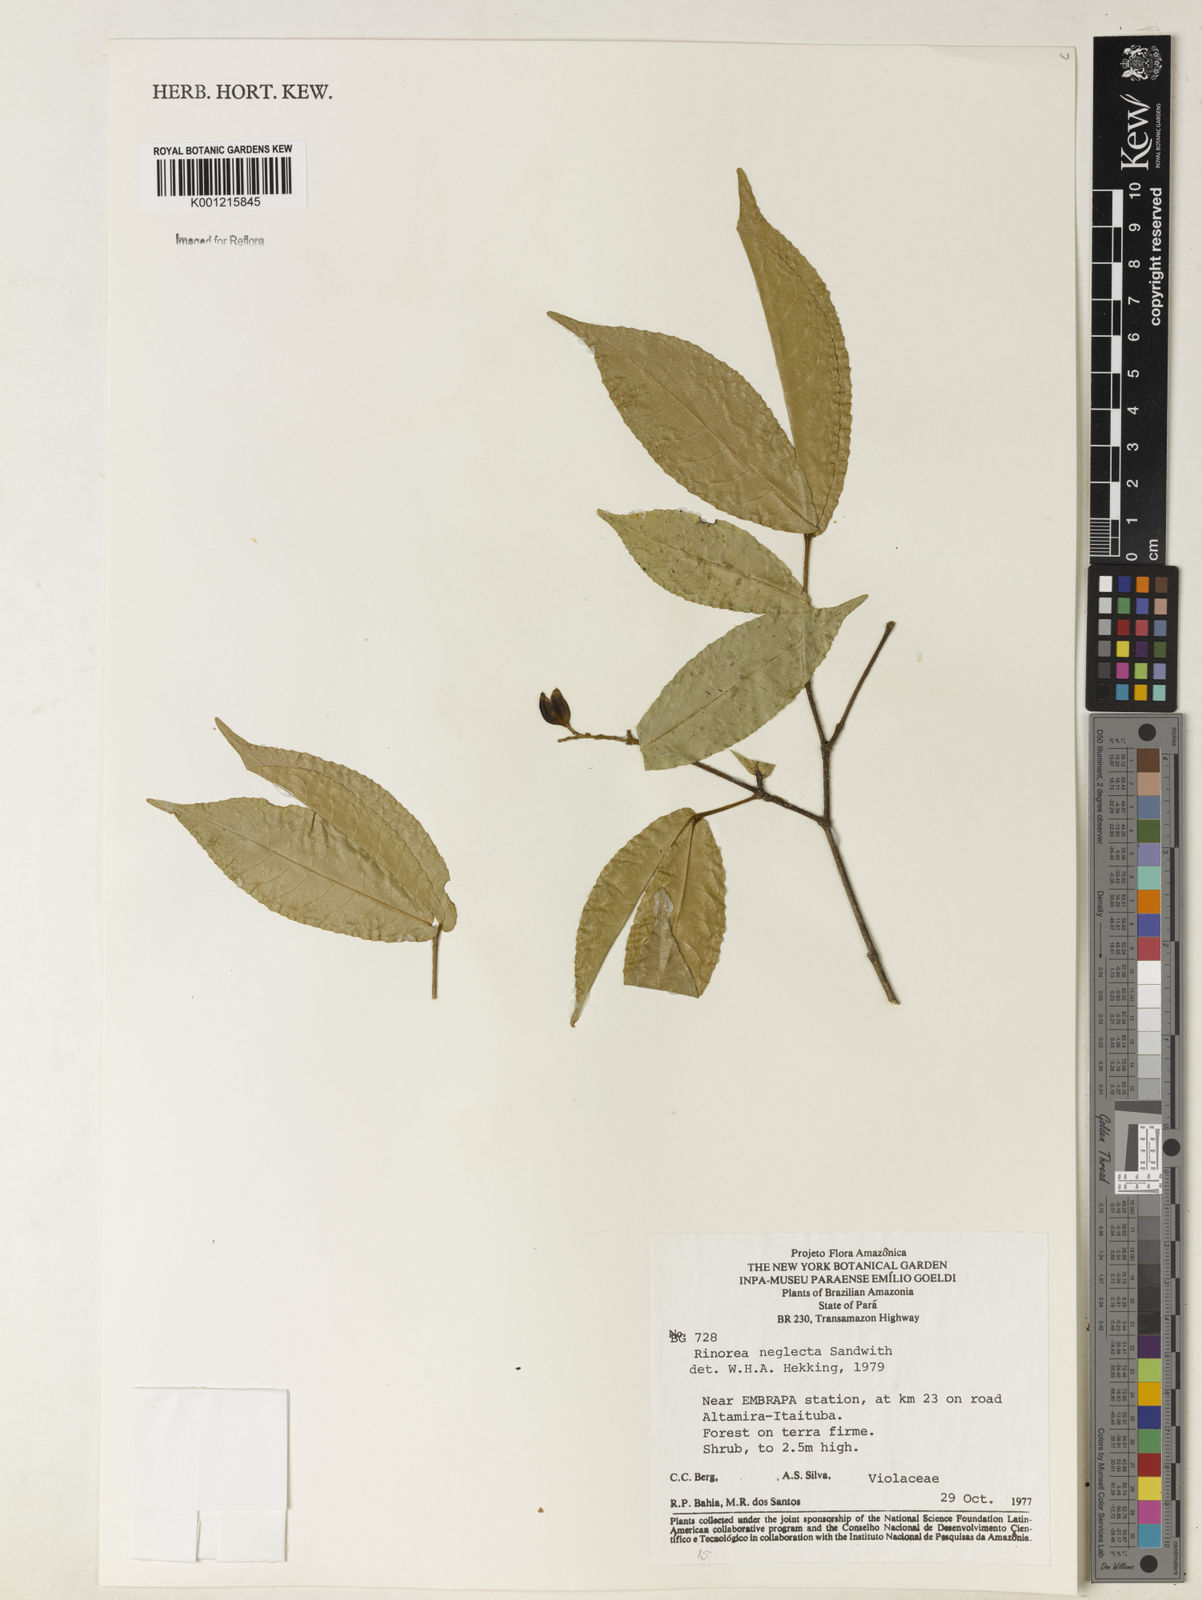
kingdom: Plantae
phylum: Tracheophyta
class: Magnoliopsida
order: Malpighiales
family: Violaceae
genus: Rinorea
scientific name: Rinorea neglecta
